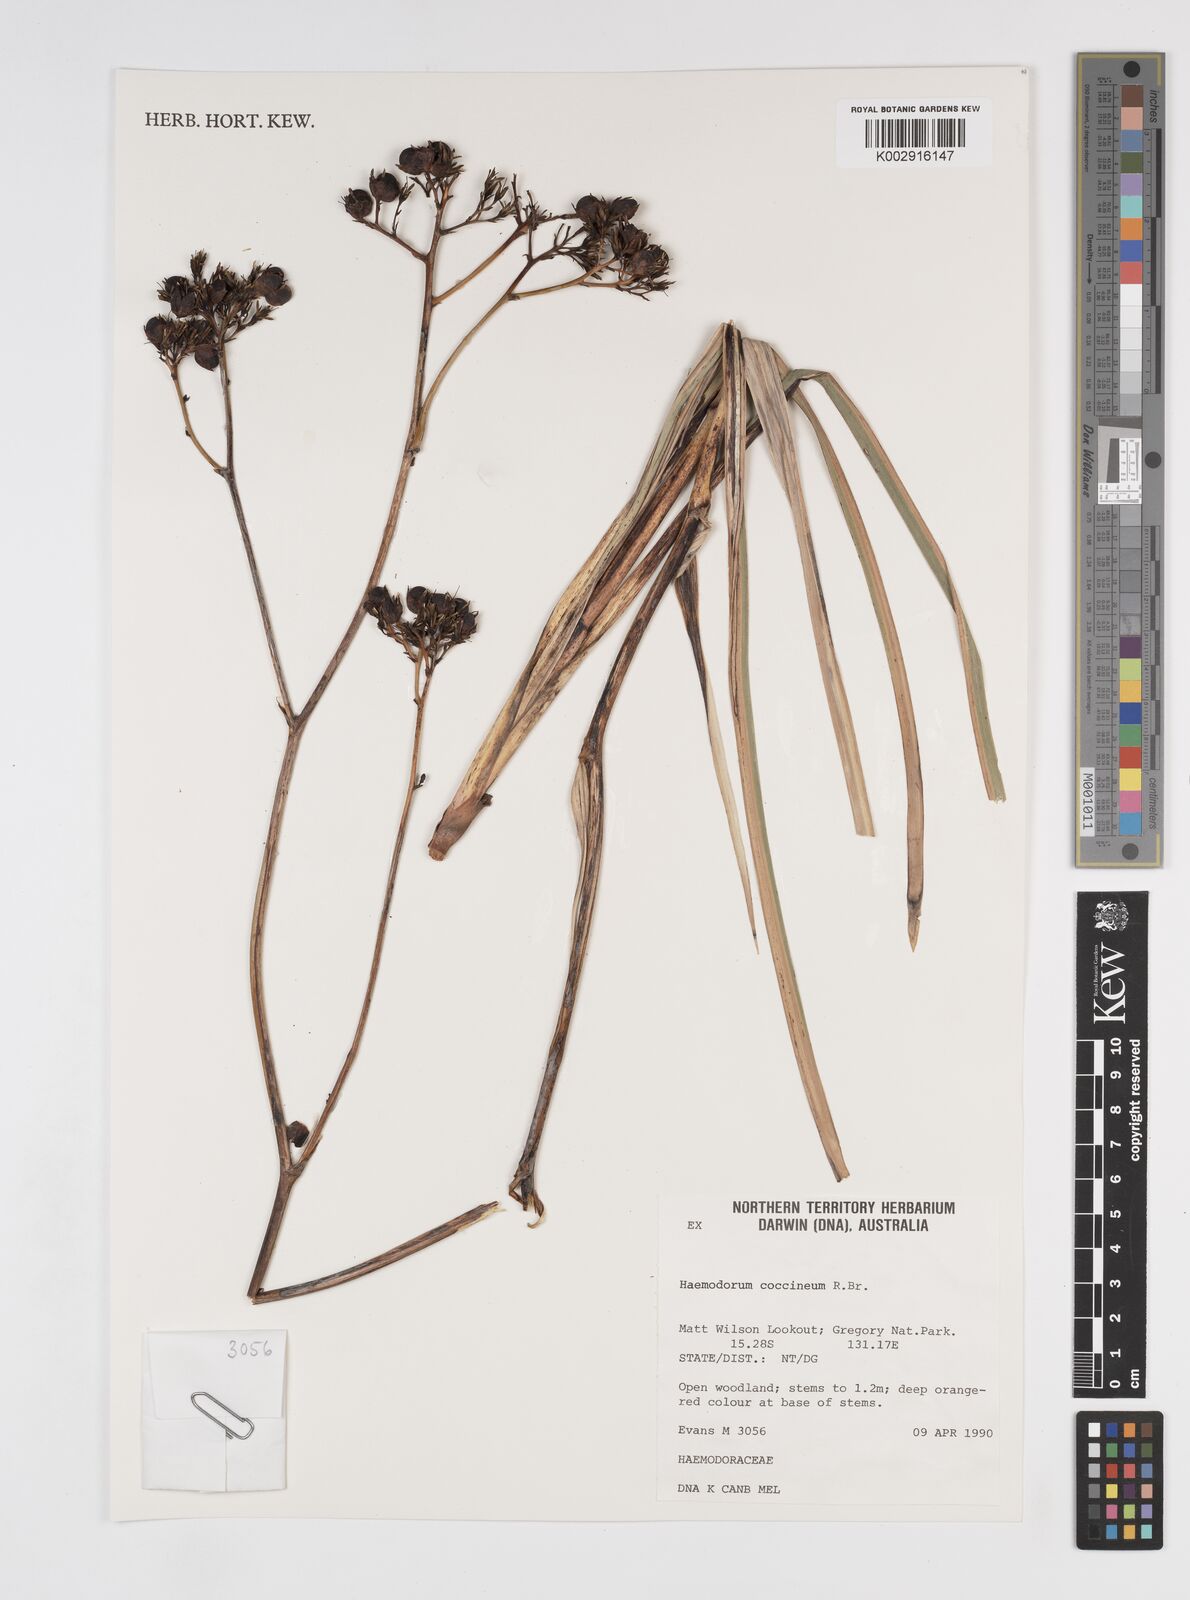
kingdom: Plantae
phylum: Tracheophyta
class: Liliopsida
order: Commelinales
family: Haemodoraceae
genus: Haemodorum
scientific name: Haemodorum coccineum
